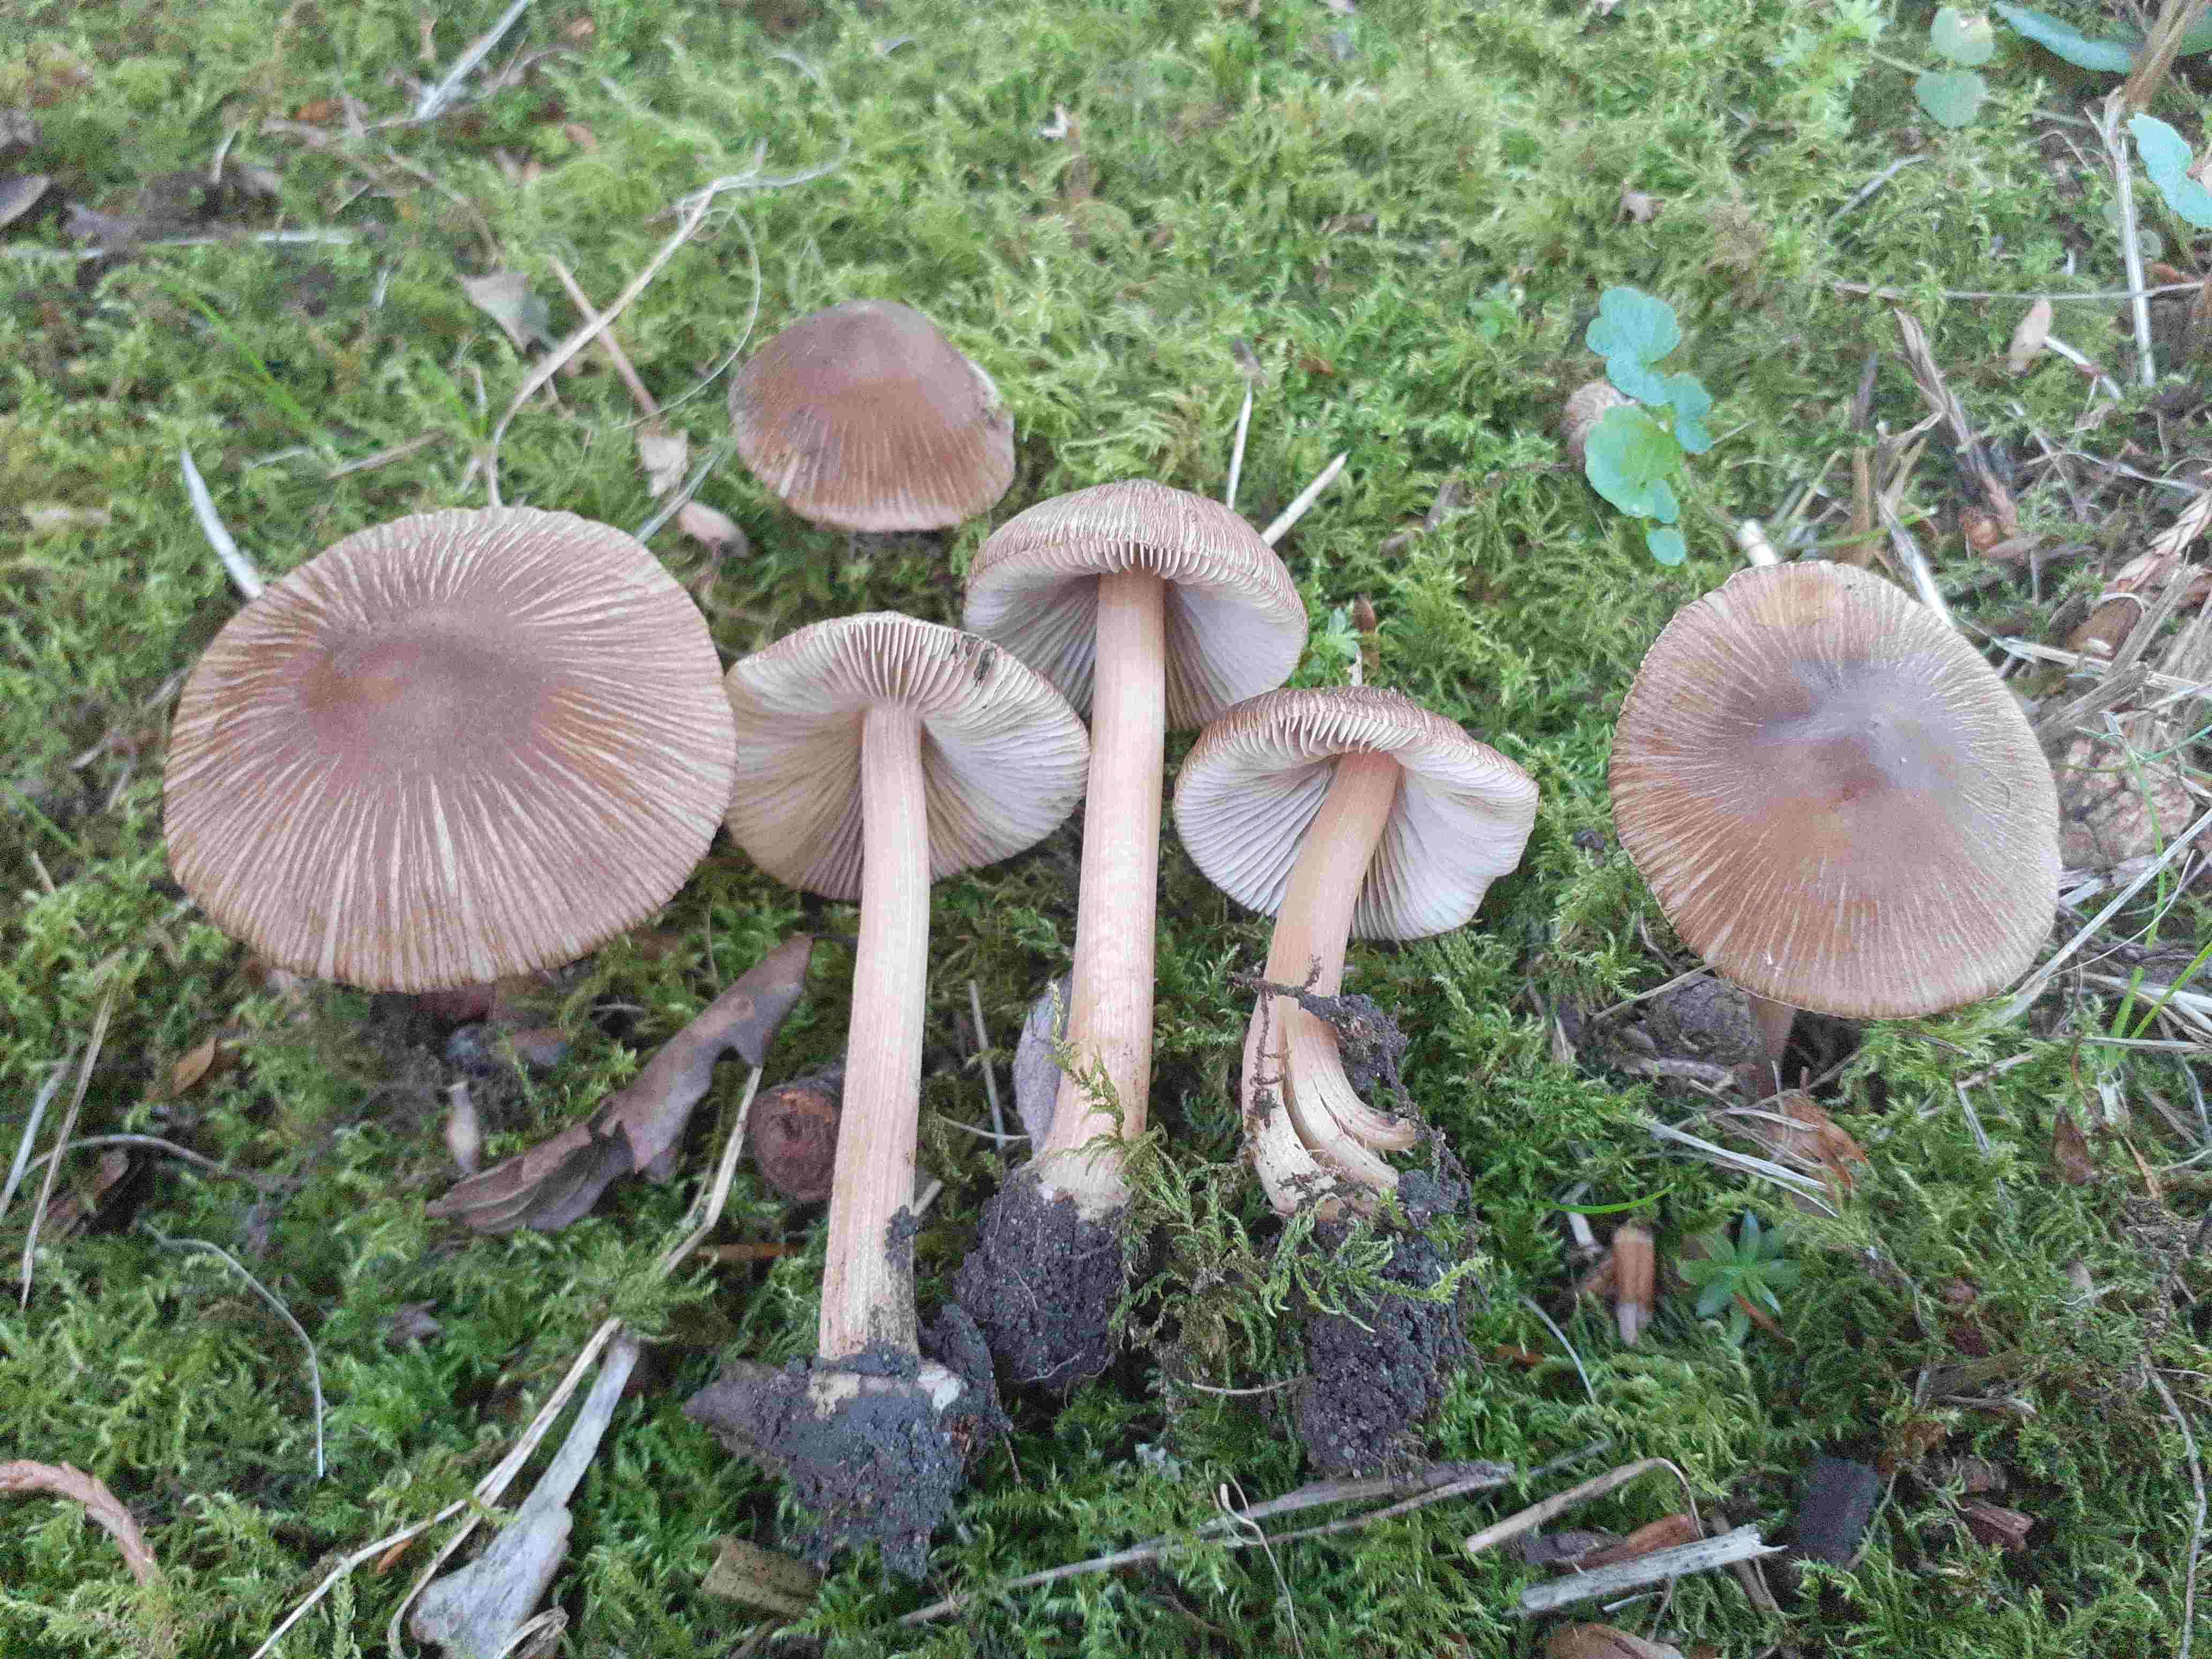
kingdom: Fungi
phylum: Basidiomycota
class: Agaricomycetes
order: Agaricales
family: Inocybaceae
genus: Inocybe
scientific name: Inocybe asterospora
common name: stjernesporet trævlhat
